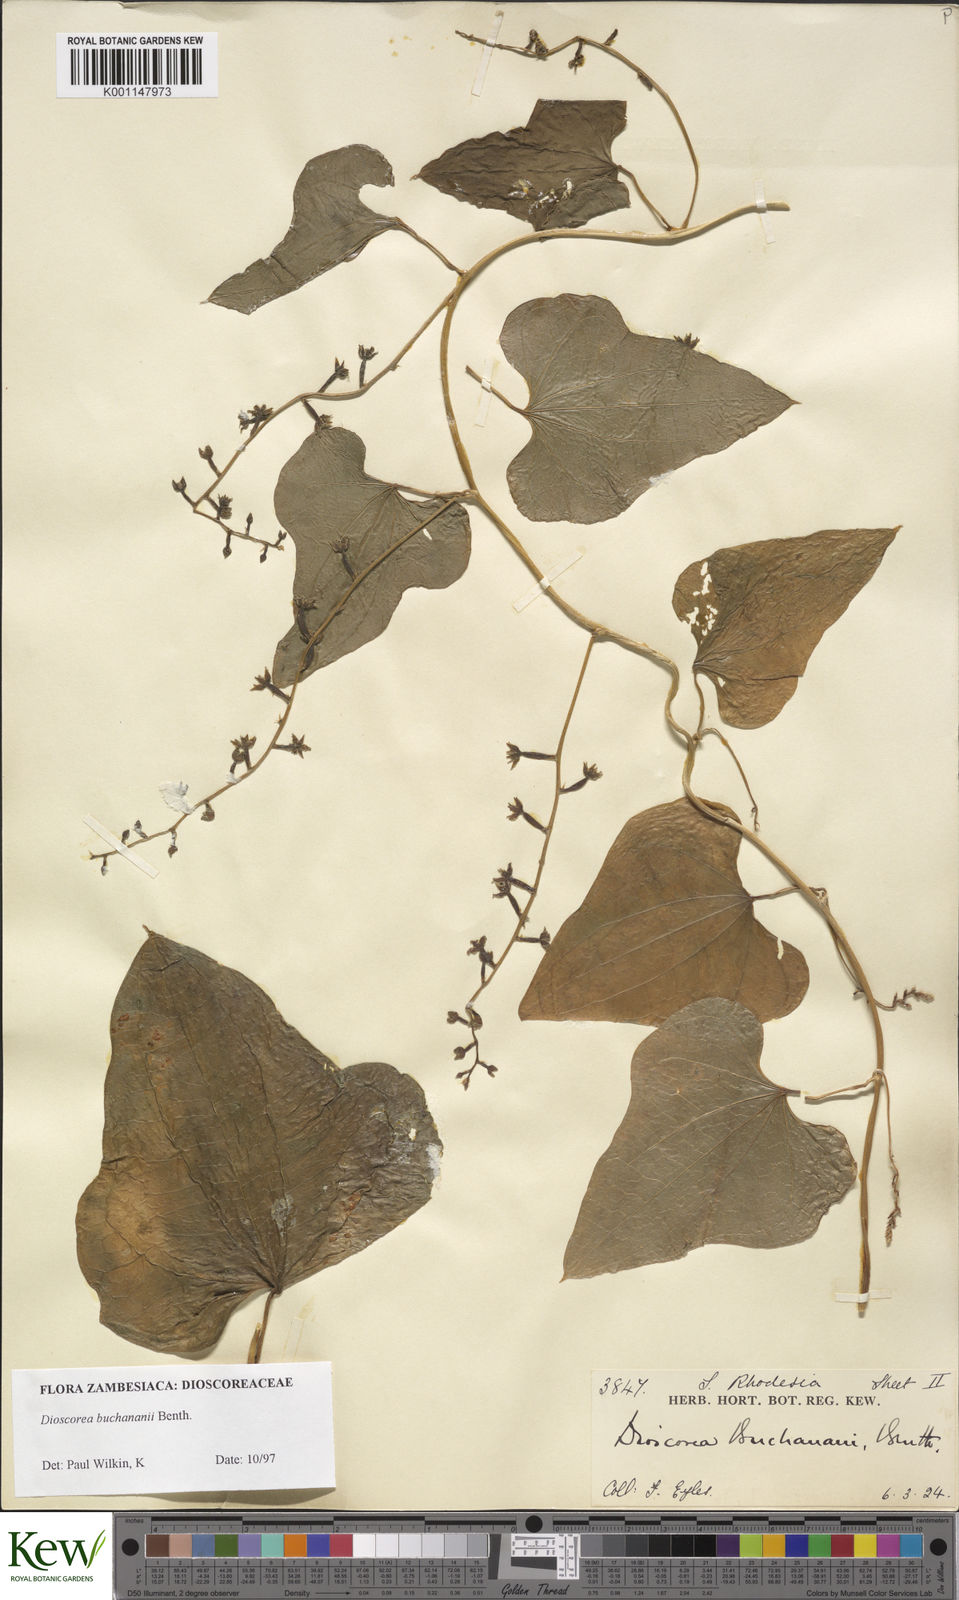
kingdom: Plantae
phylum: Tracheophyta
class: Liliopsida
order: Dioscoreales
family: Dioscoreaceae
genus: Dioscorea
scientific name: Dioscorea buchananii
